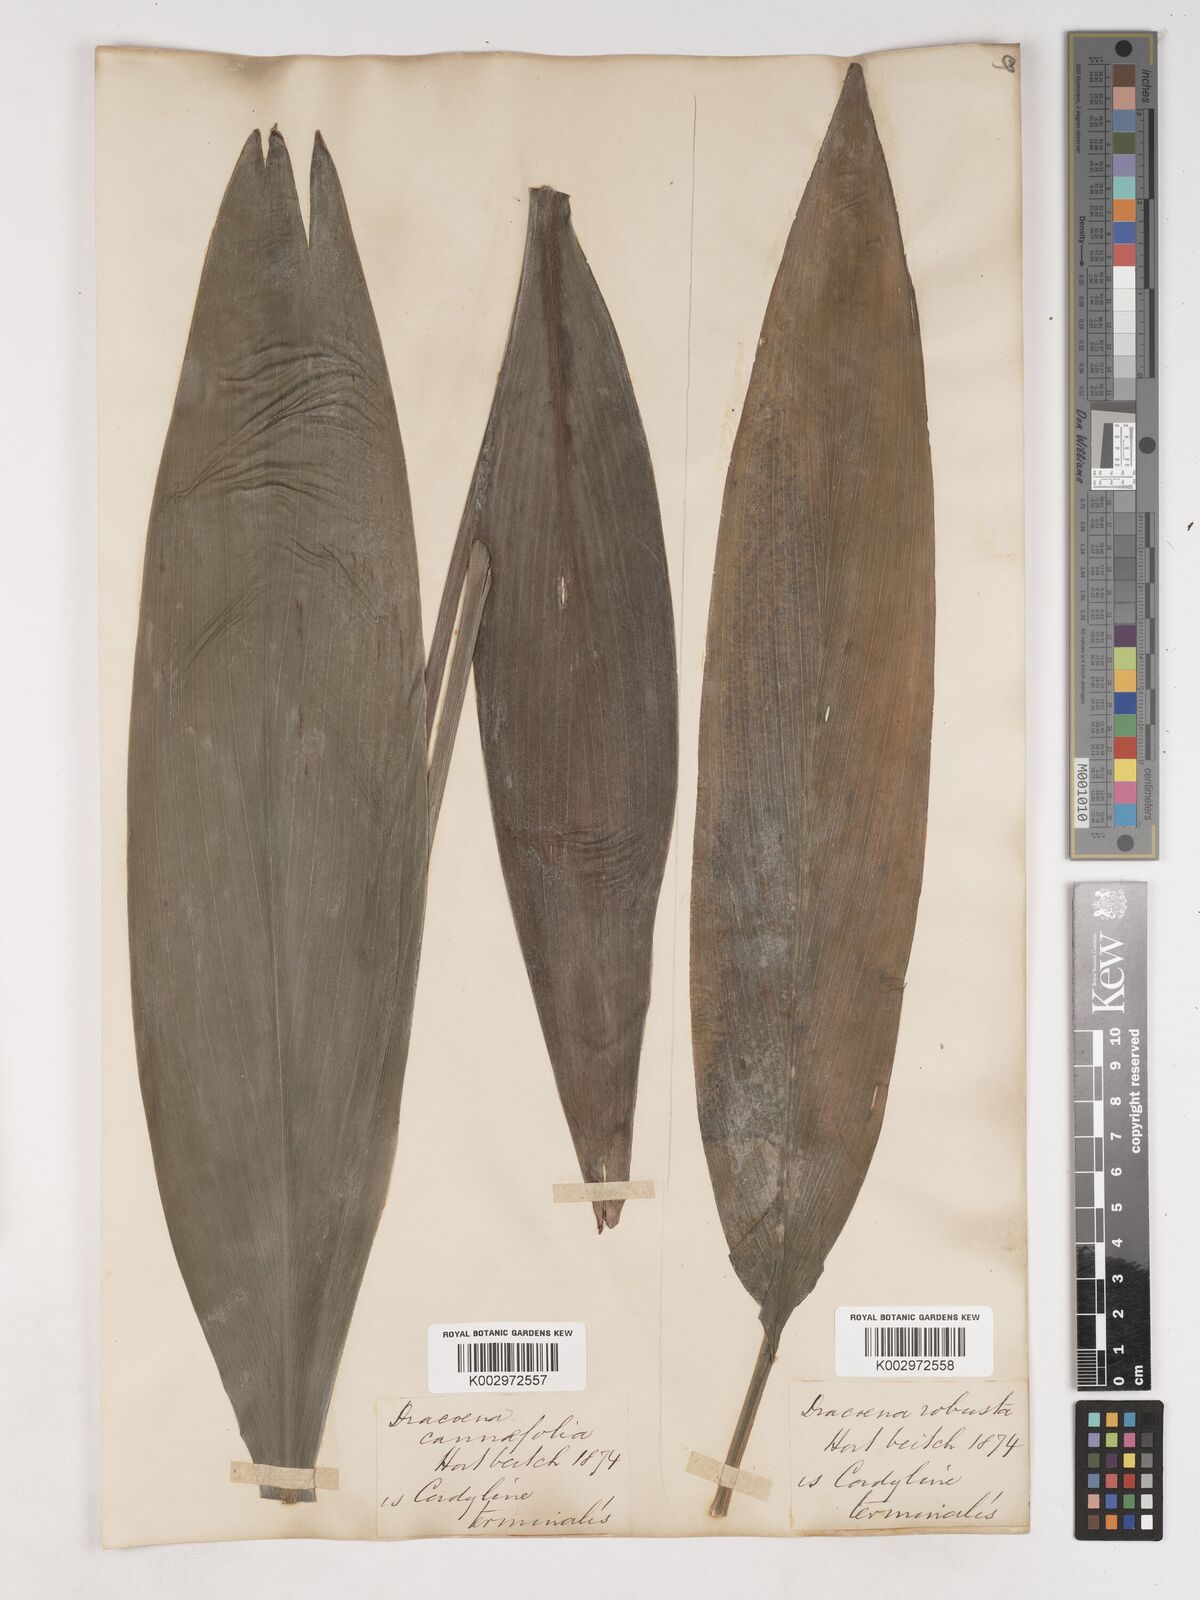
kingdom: Plantae
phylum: Tracheophyta
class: Liliopsida
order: Asparagales
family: Asparagaceae
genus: Cordyline
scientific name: Cordyline fruticosa
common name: Good-luck-plant
